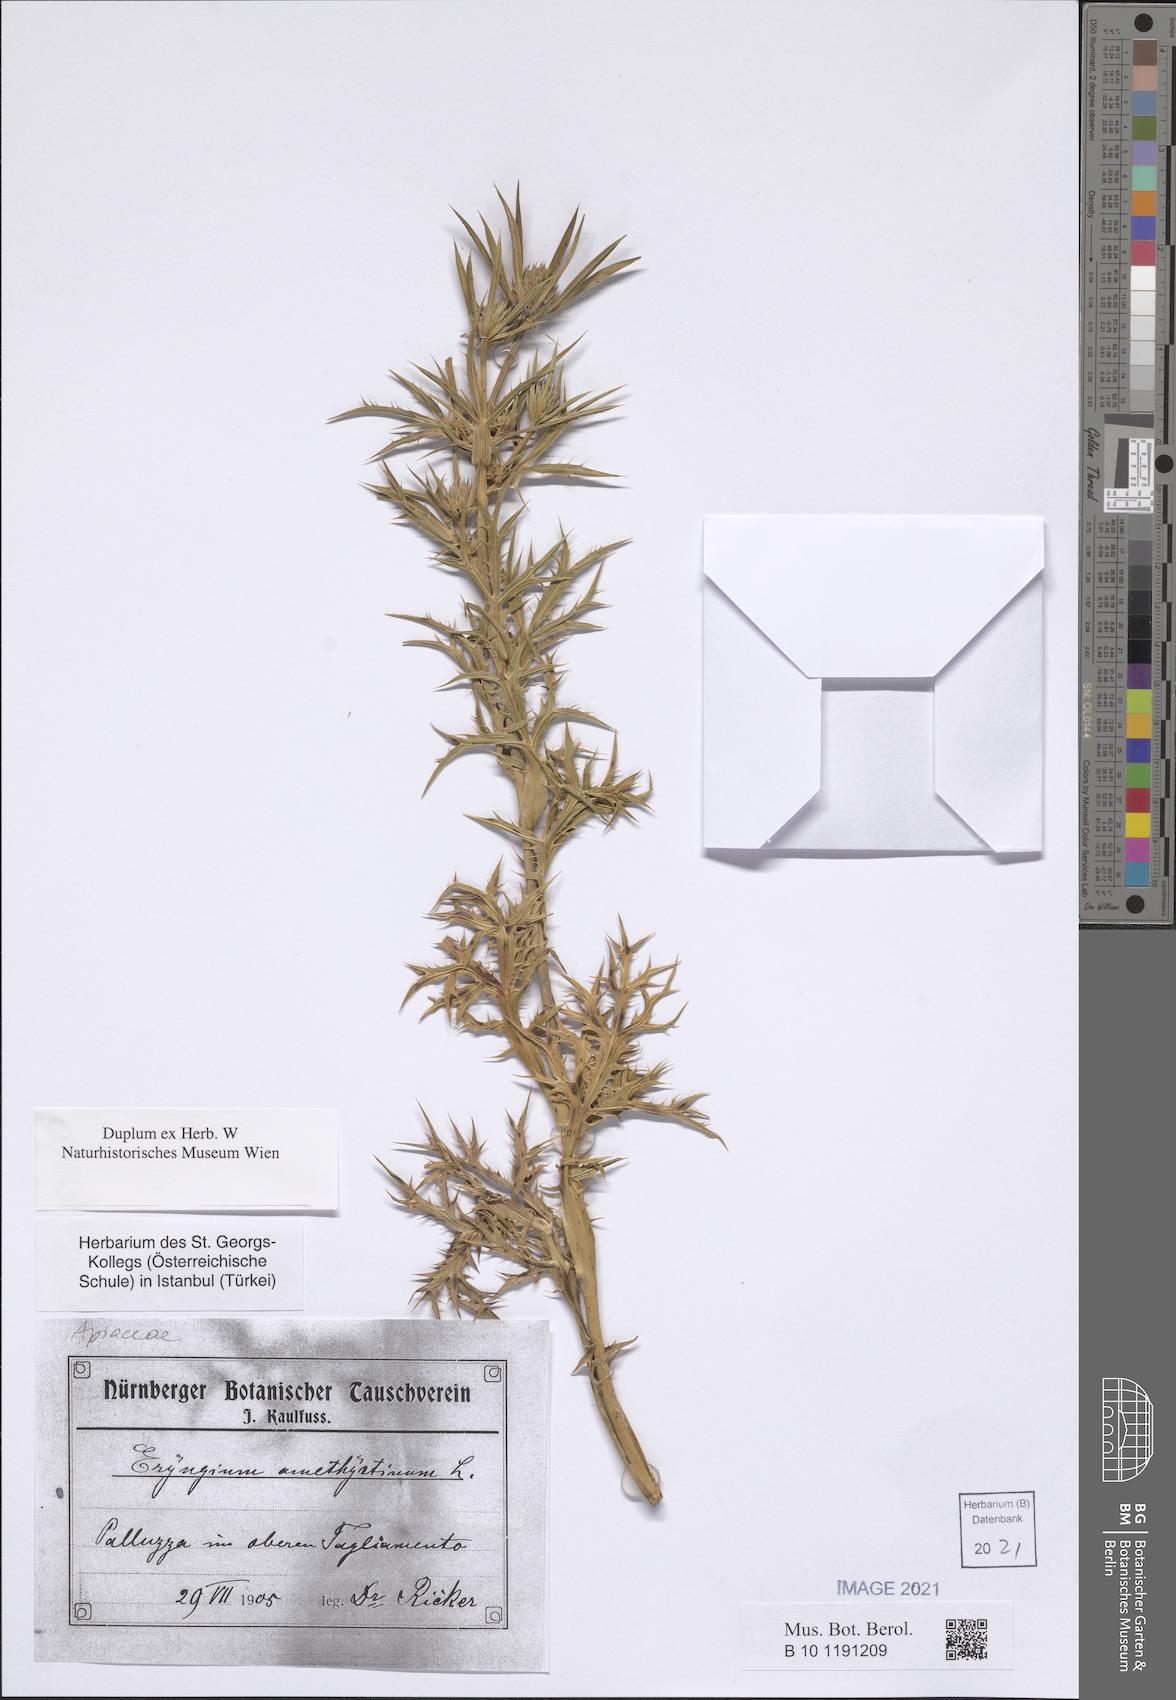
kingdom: Plantae
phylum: Tracheophyta
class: Magnoliopsida
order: Apiales
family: Apiaceae
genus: Eryngium
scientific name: Eryngium amethystinum
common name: Amethyst eryngo
